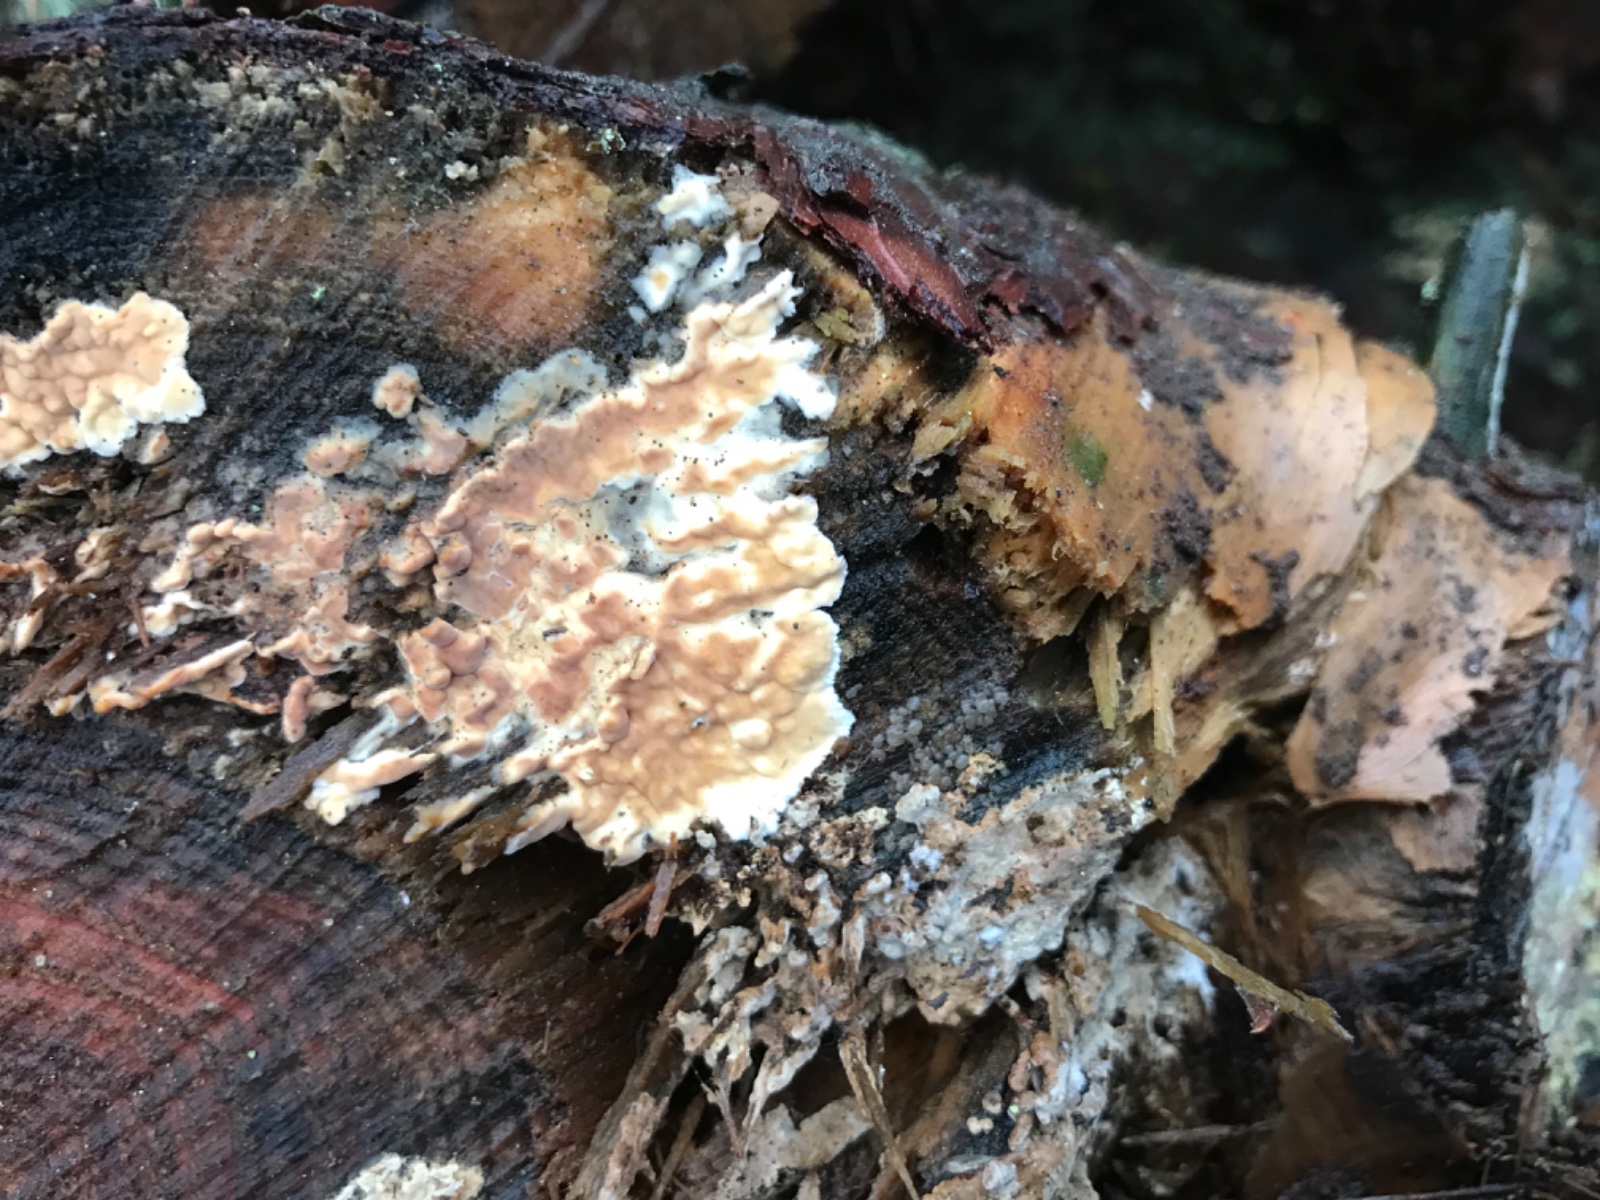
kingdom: Fungi
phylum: Basidiomycota
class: Agaricomycetes
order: Polyporales
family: Dacryobolaceae
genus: Dacryobolus
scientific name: Dacryobolus karstenii
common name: glat vulkanskorpe
